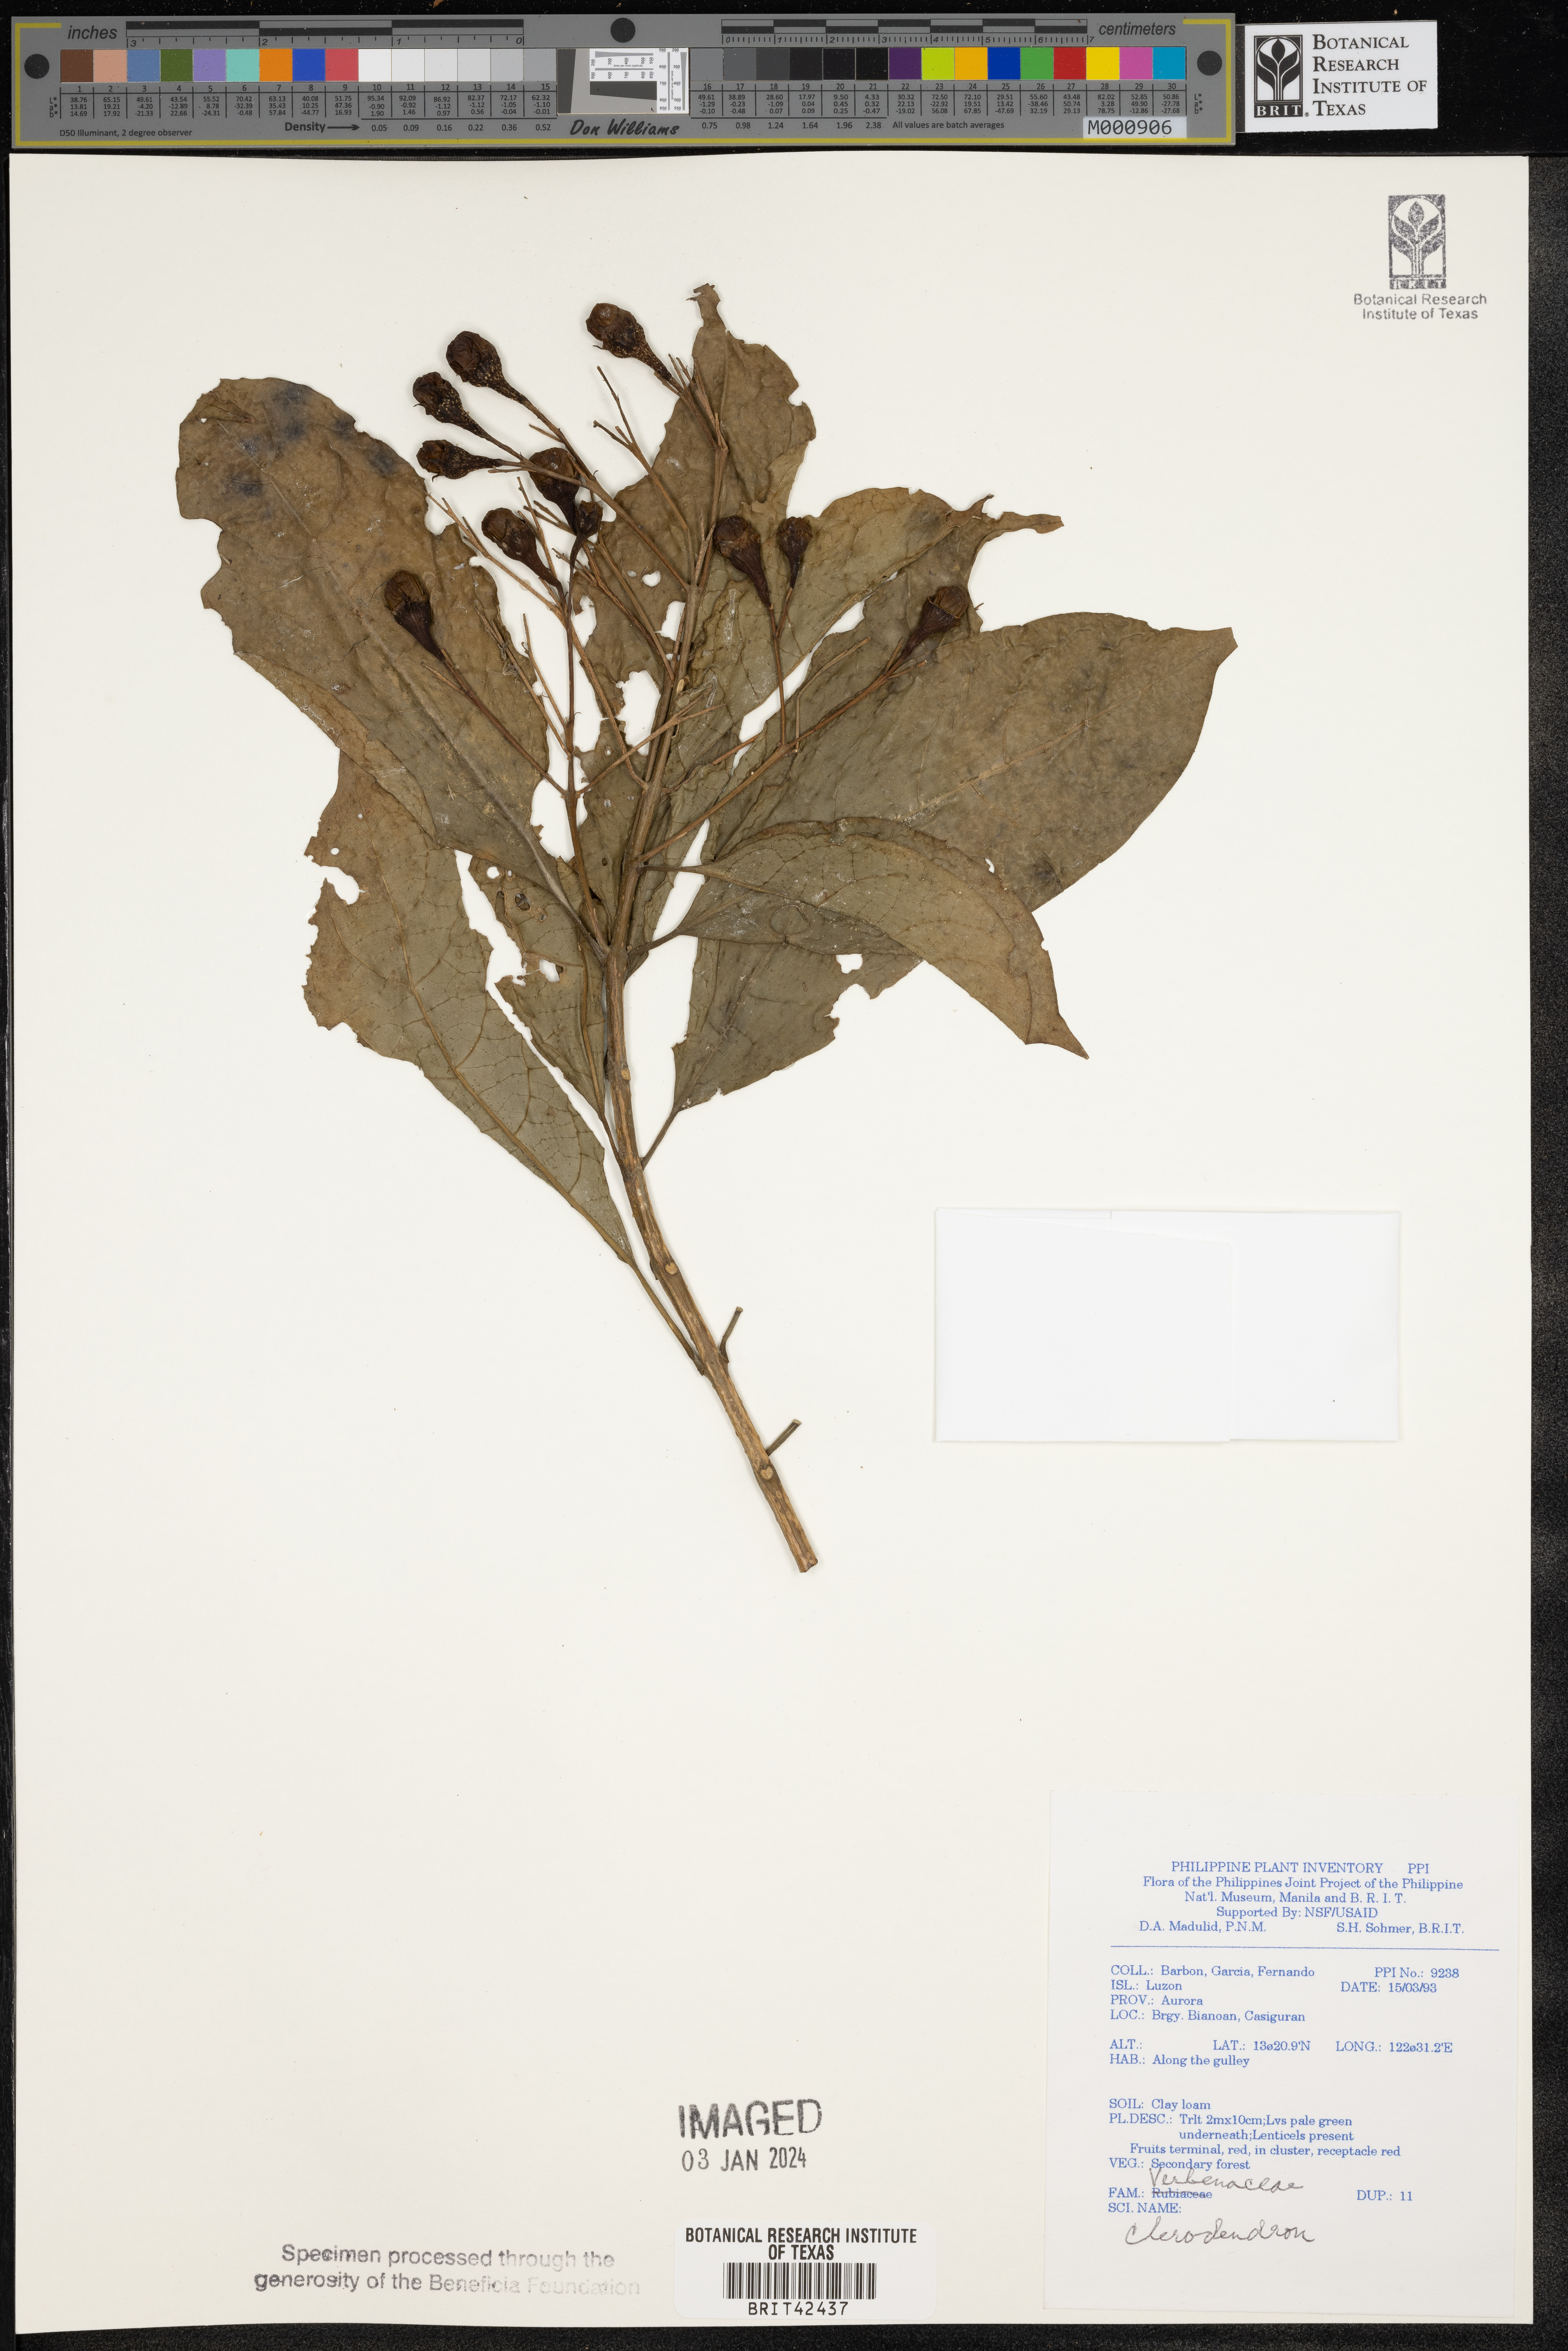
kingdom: Plantae
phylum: Tracheophyta
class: Magnoliopsida
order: Lamiales
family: Lamiaceae
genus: Clerodendrum
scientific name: Clerodendrum
